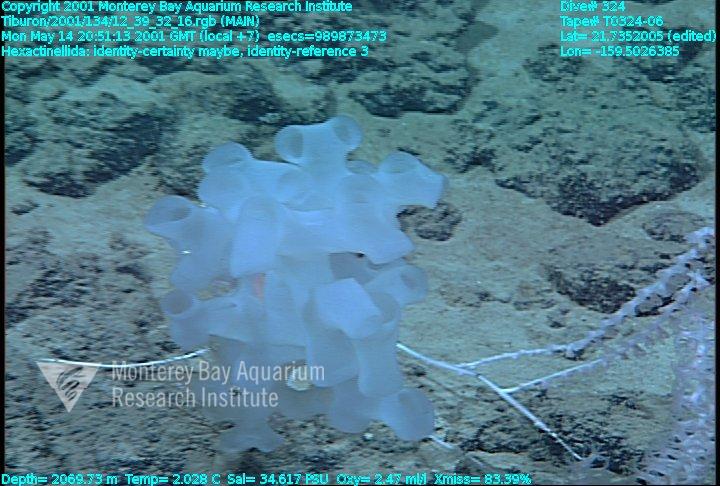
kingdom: Animalia
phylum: Porifera
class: Hexactinellida
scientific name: Hexactinellida
